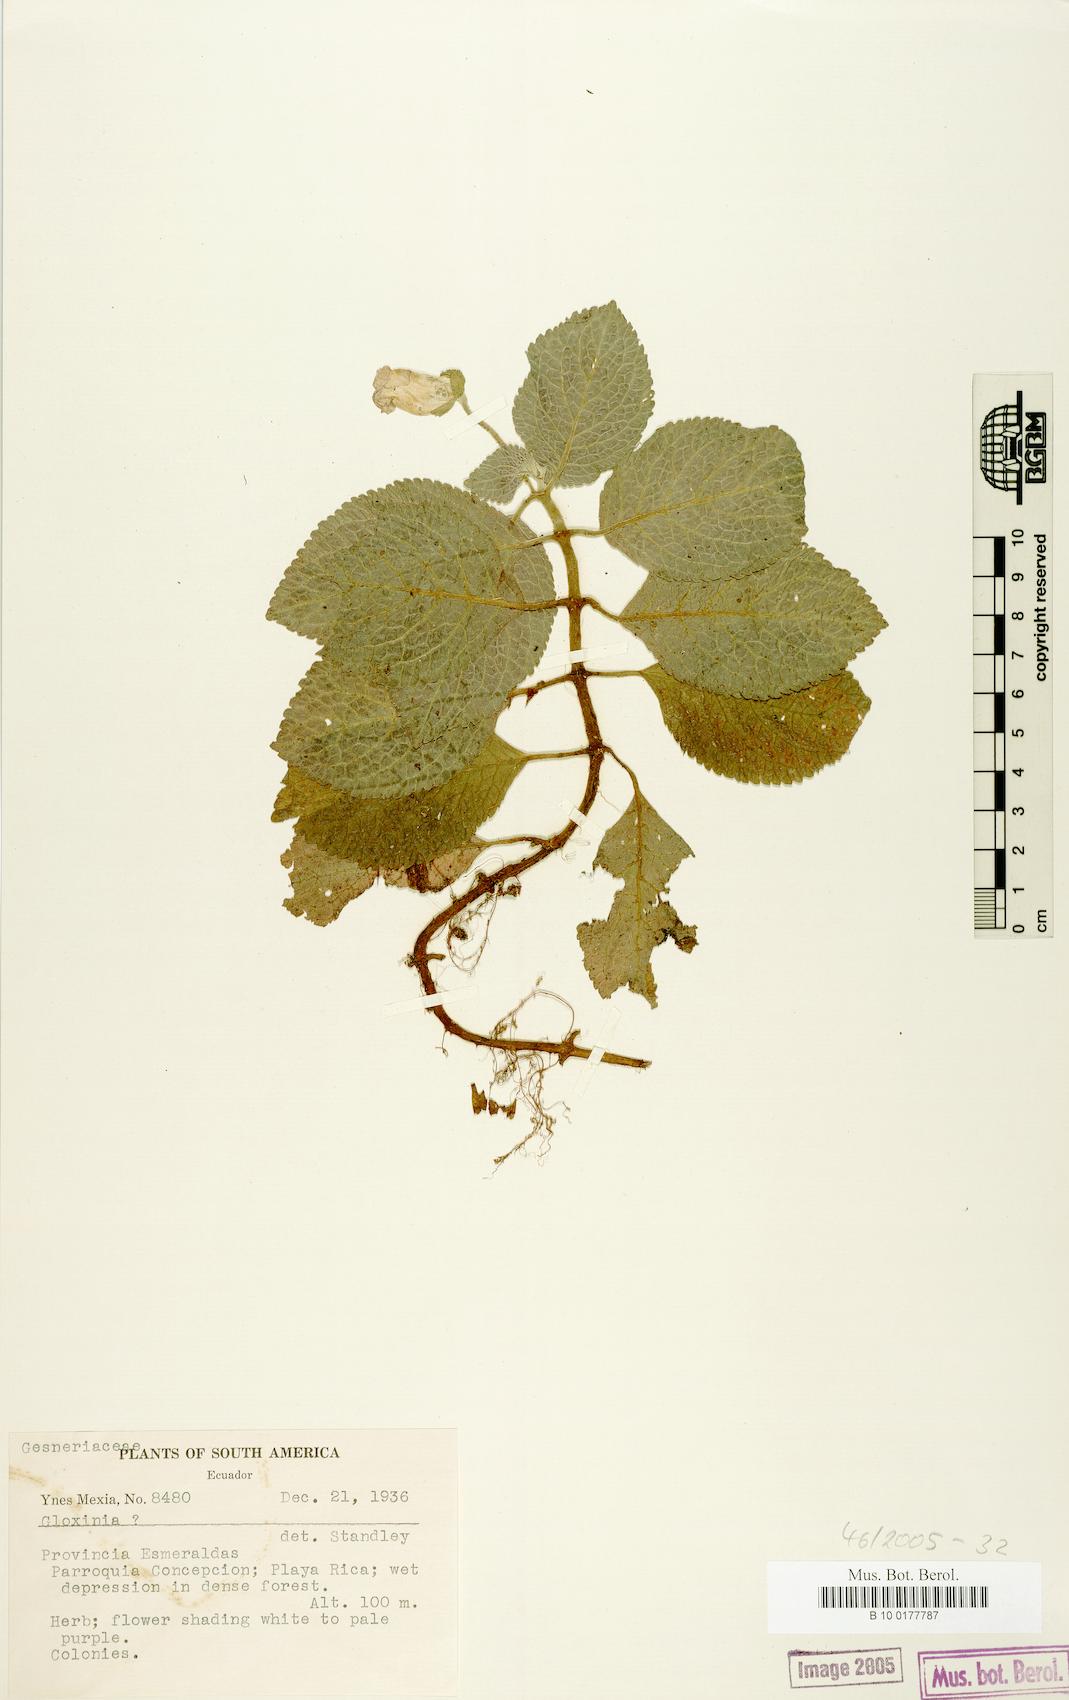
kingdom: Plantae
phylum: Tracheophyta
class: Magnoliopsida
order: Lamiales
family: Gesneriaceae
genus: Gloxinia
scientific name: Gloxinia
